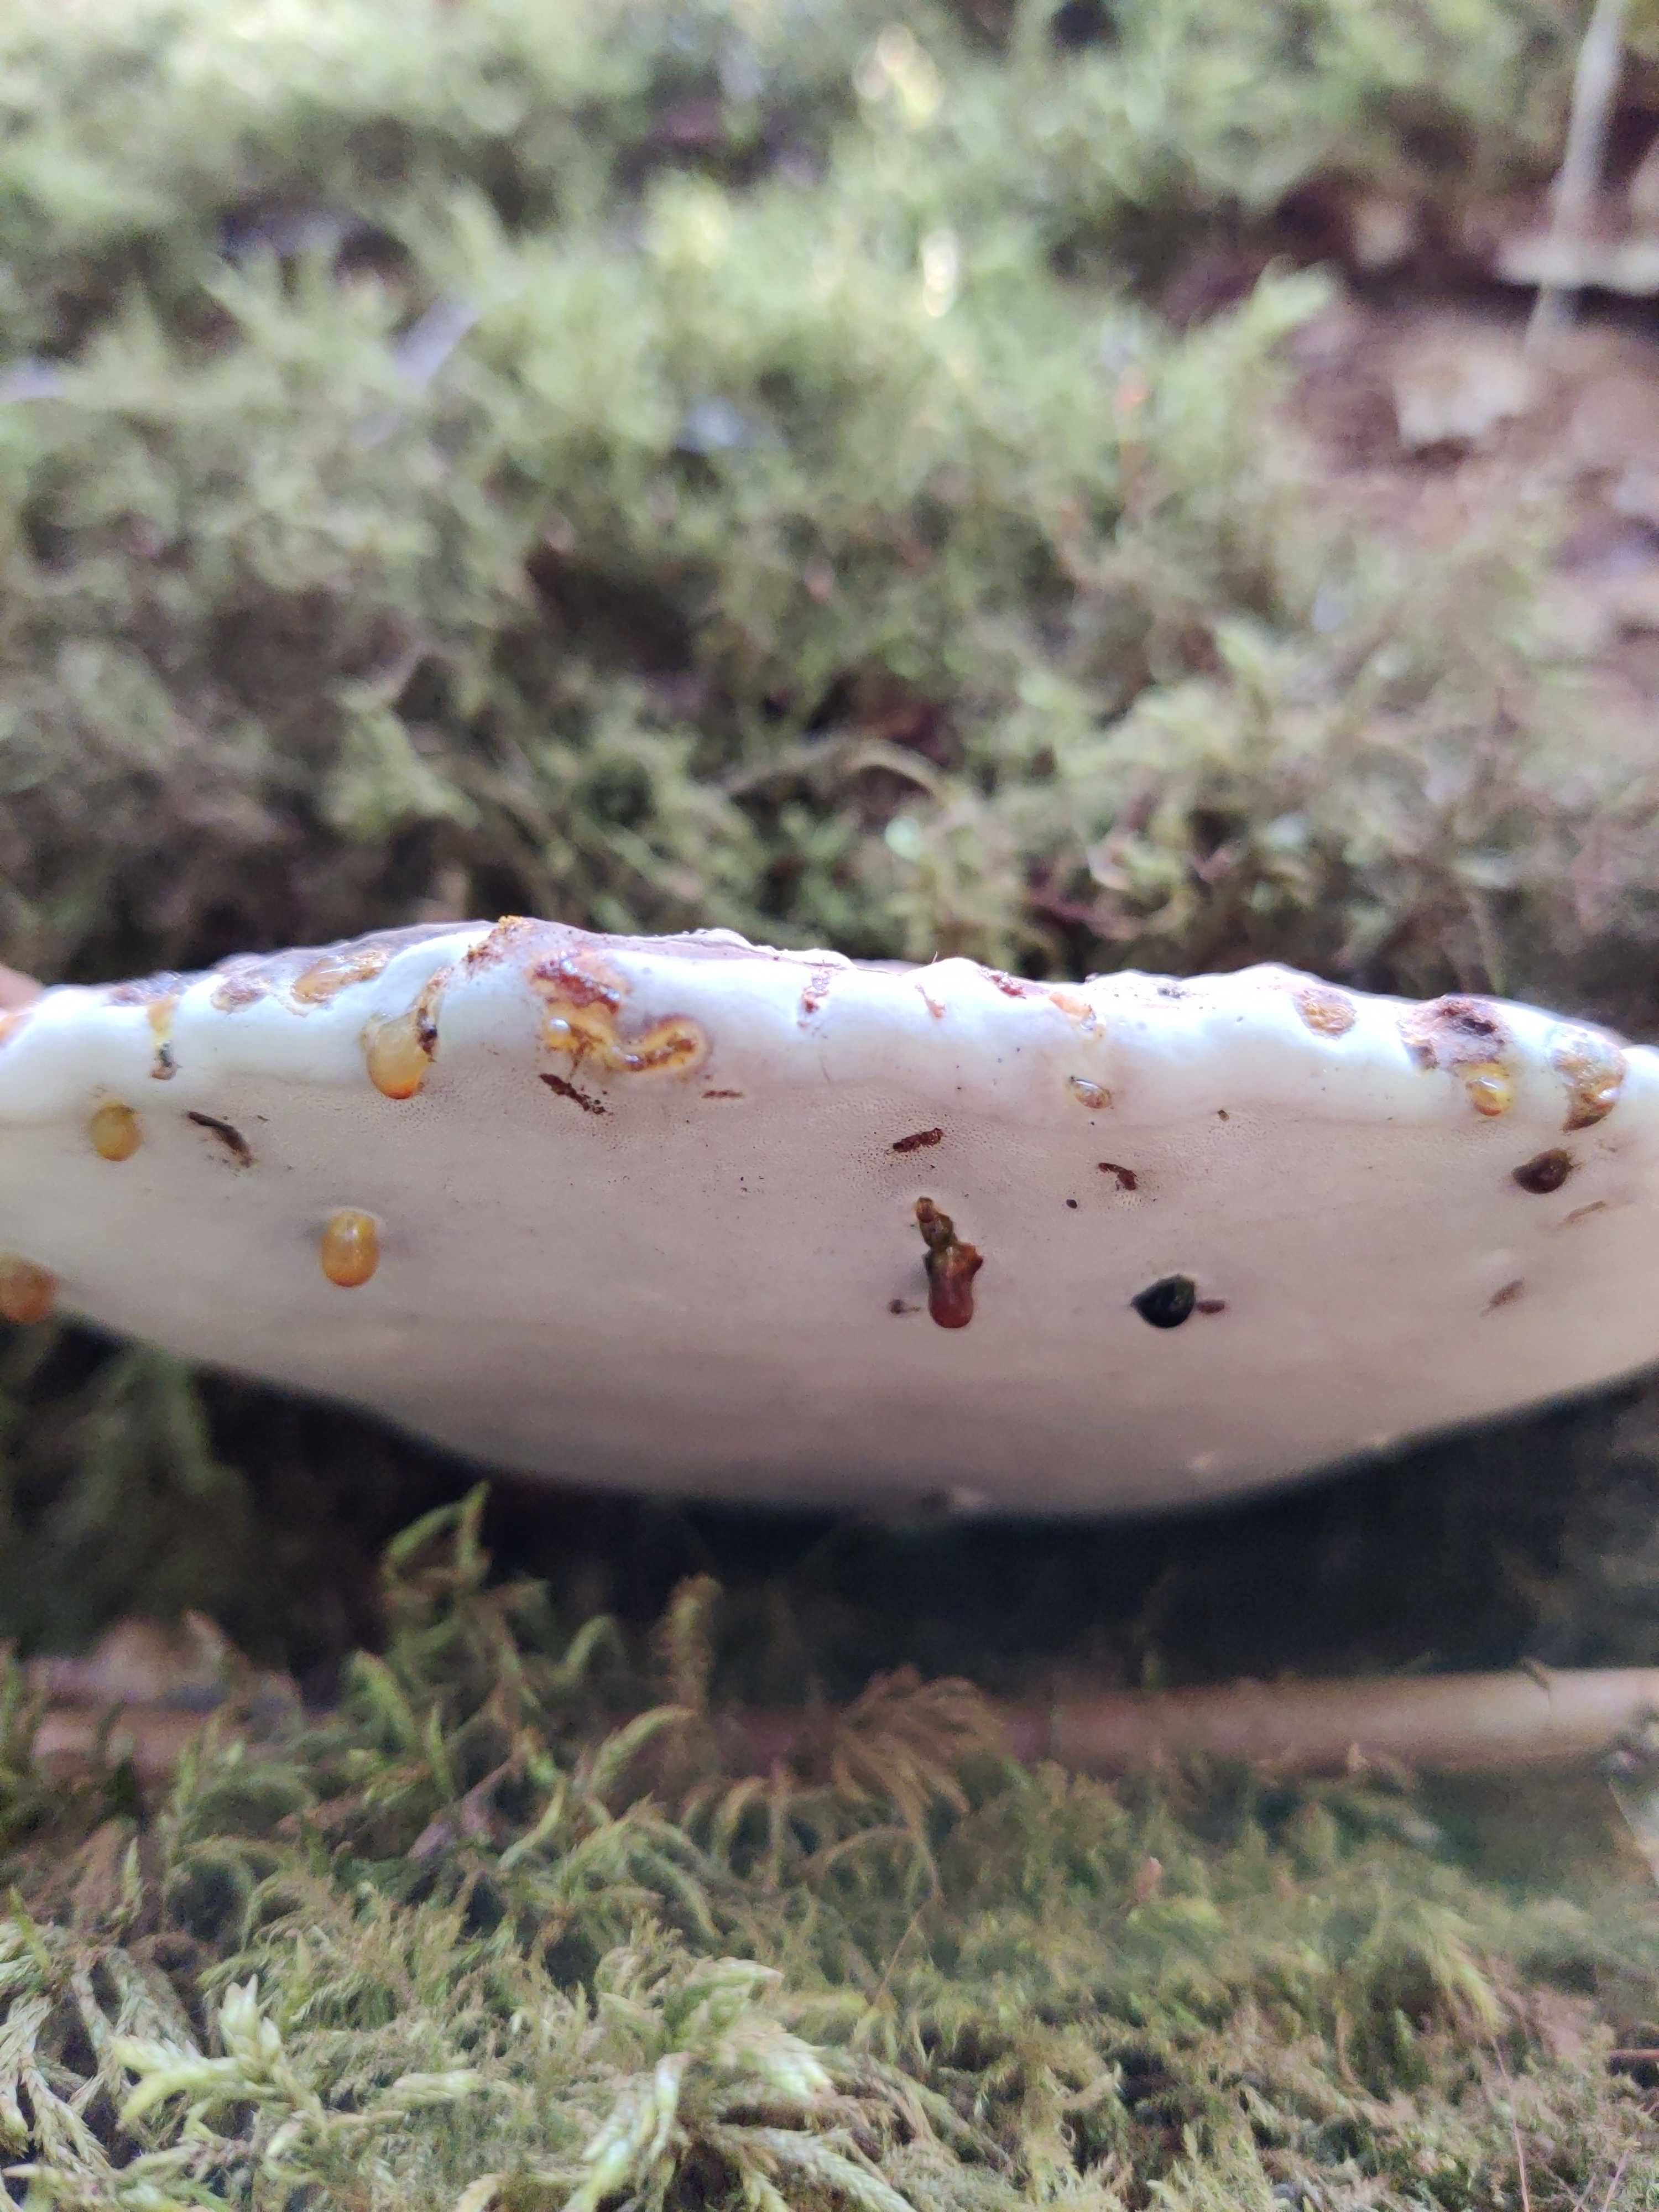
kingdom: Fungi
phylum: Basidiomycota
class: Agaricomycetes
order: Polyporales
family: Polyporaceae
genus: Ganoderma
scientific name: Ganoderma applanatum
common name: flad lakporesvamp
